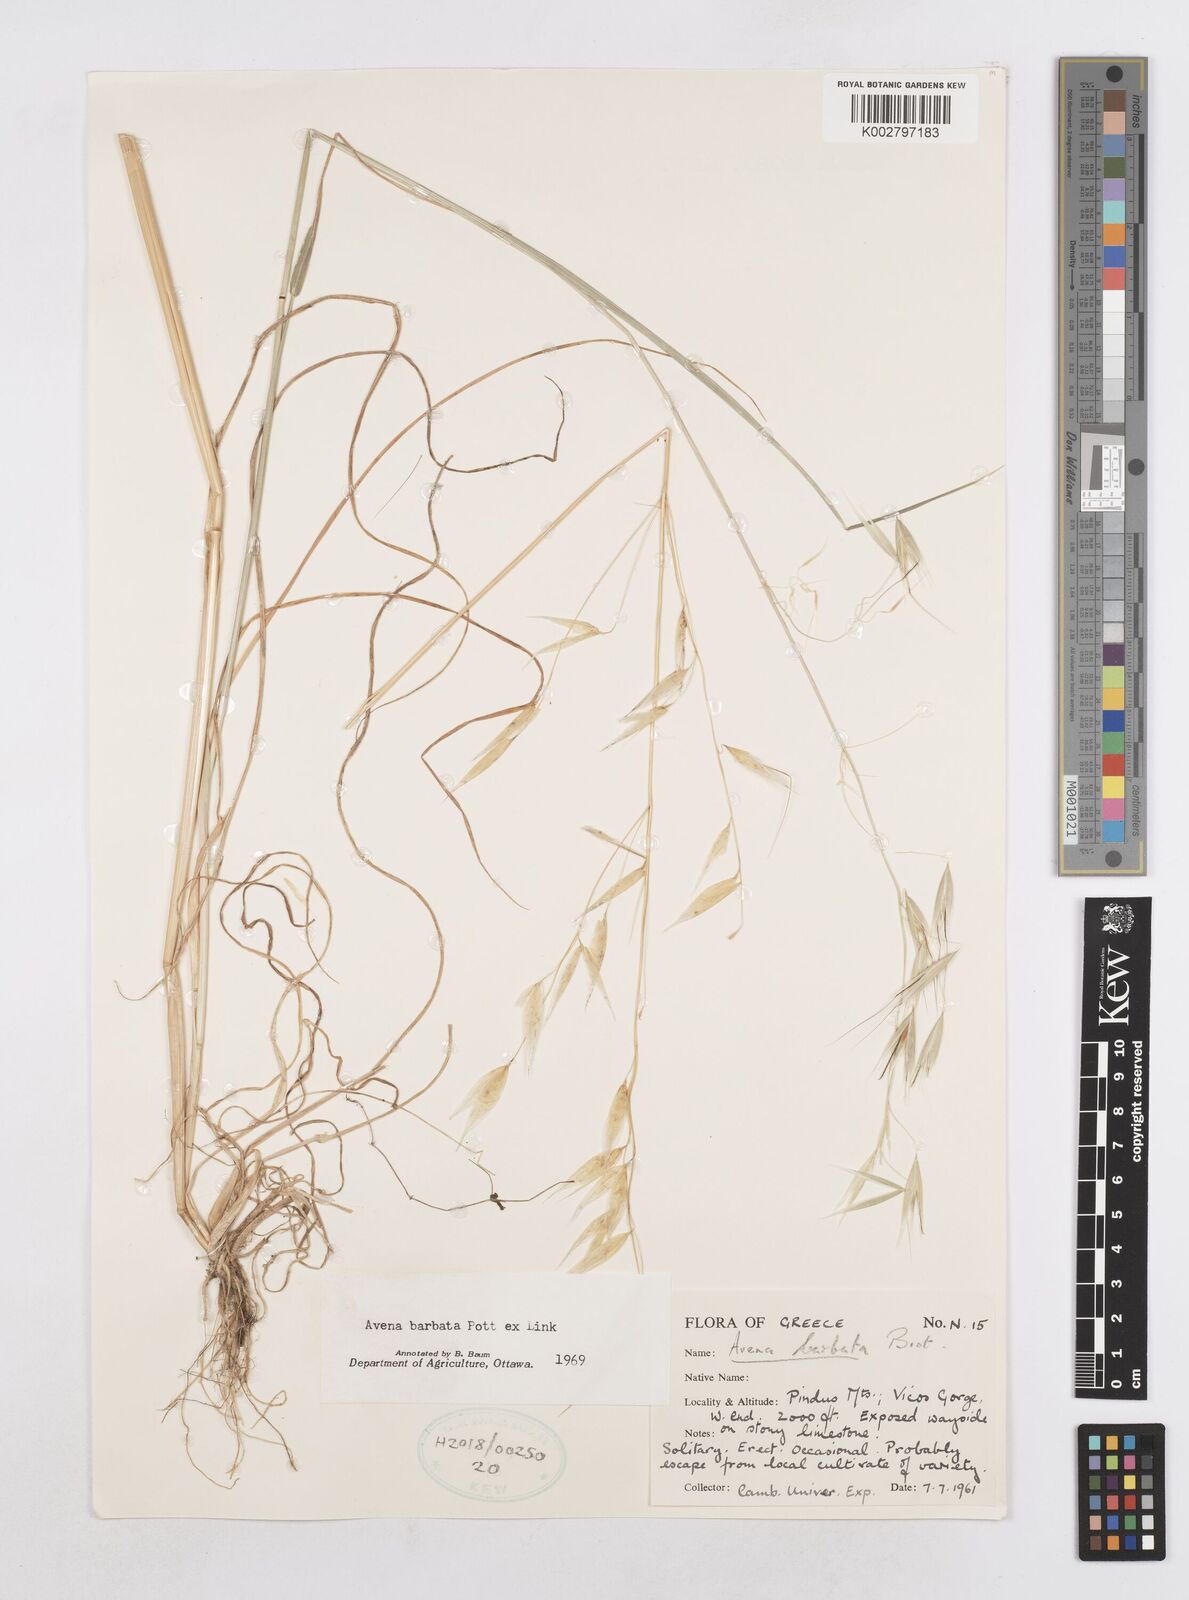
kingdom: Plantae
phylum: Tracheophyta
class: Liliopsida
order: Poales
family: Poaceae
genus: Avena
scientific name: Avena
